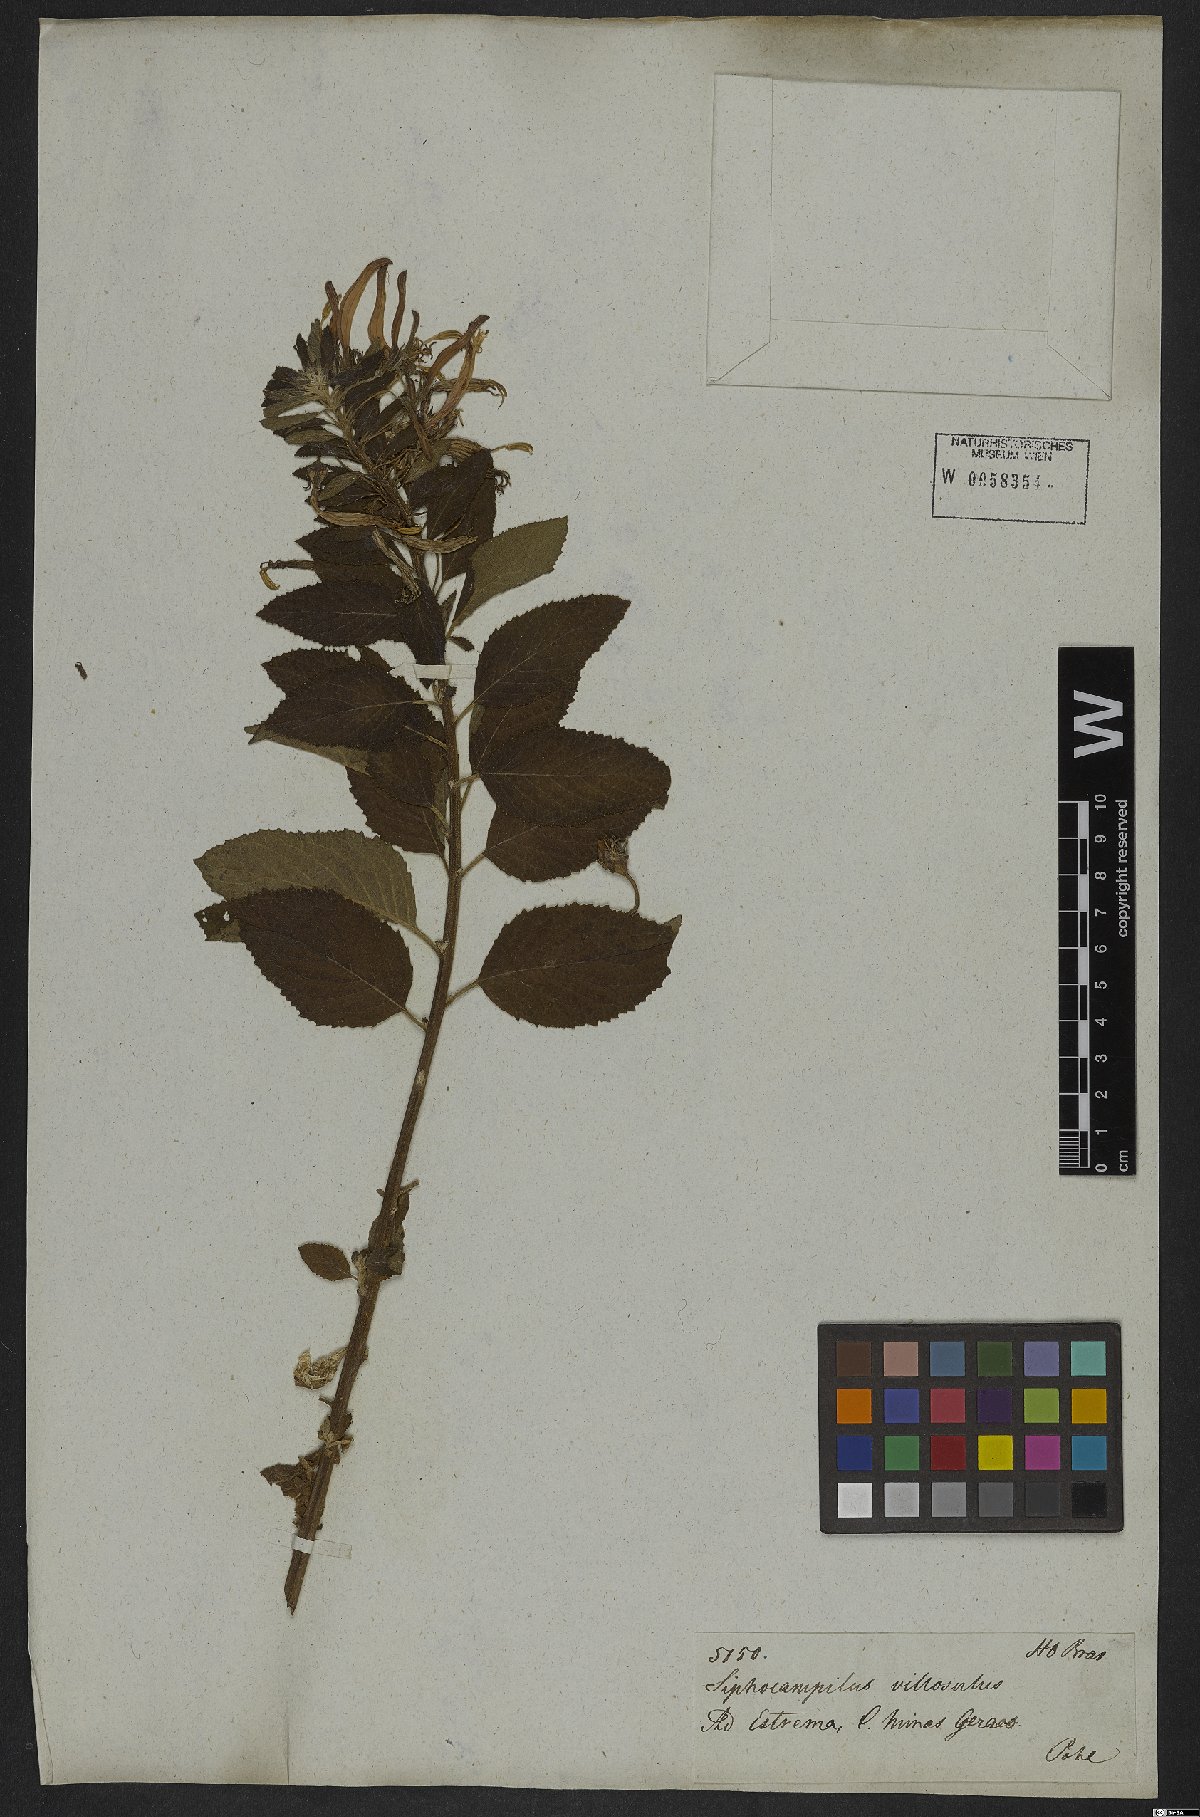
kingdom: Plantae
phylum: Tracheophyta
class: Magnoliopsida
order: Asterales
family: Campanulaceae
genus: Siphocampylus
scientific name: Siphocampylus macropodus
